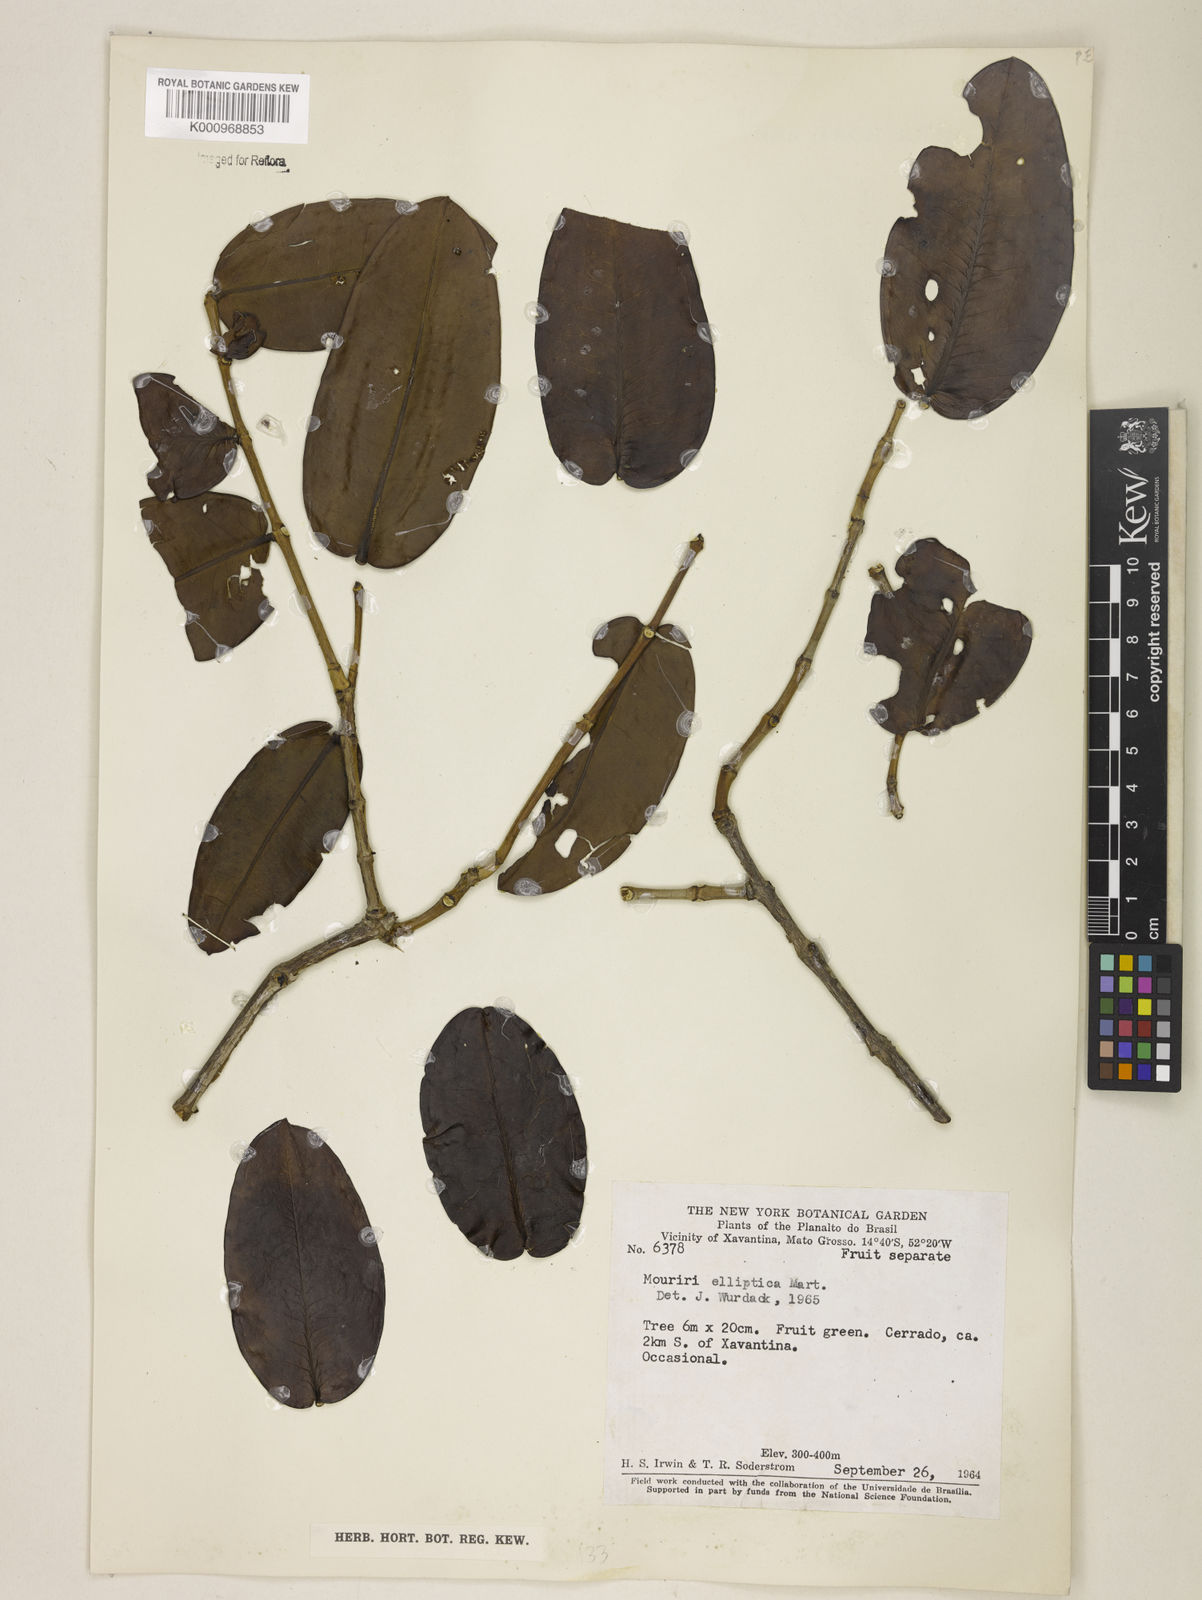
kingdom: Plantae
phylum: Tracheophyta
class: Magnoliopsida
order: Myrtales
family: Melastomataceae
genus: Mouriri
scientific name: Mouriri elliptica
